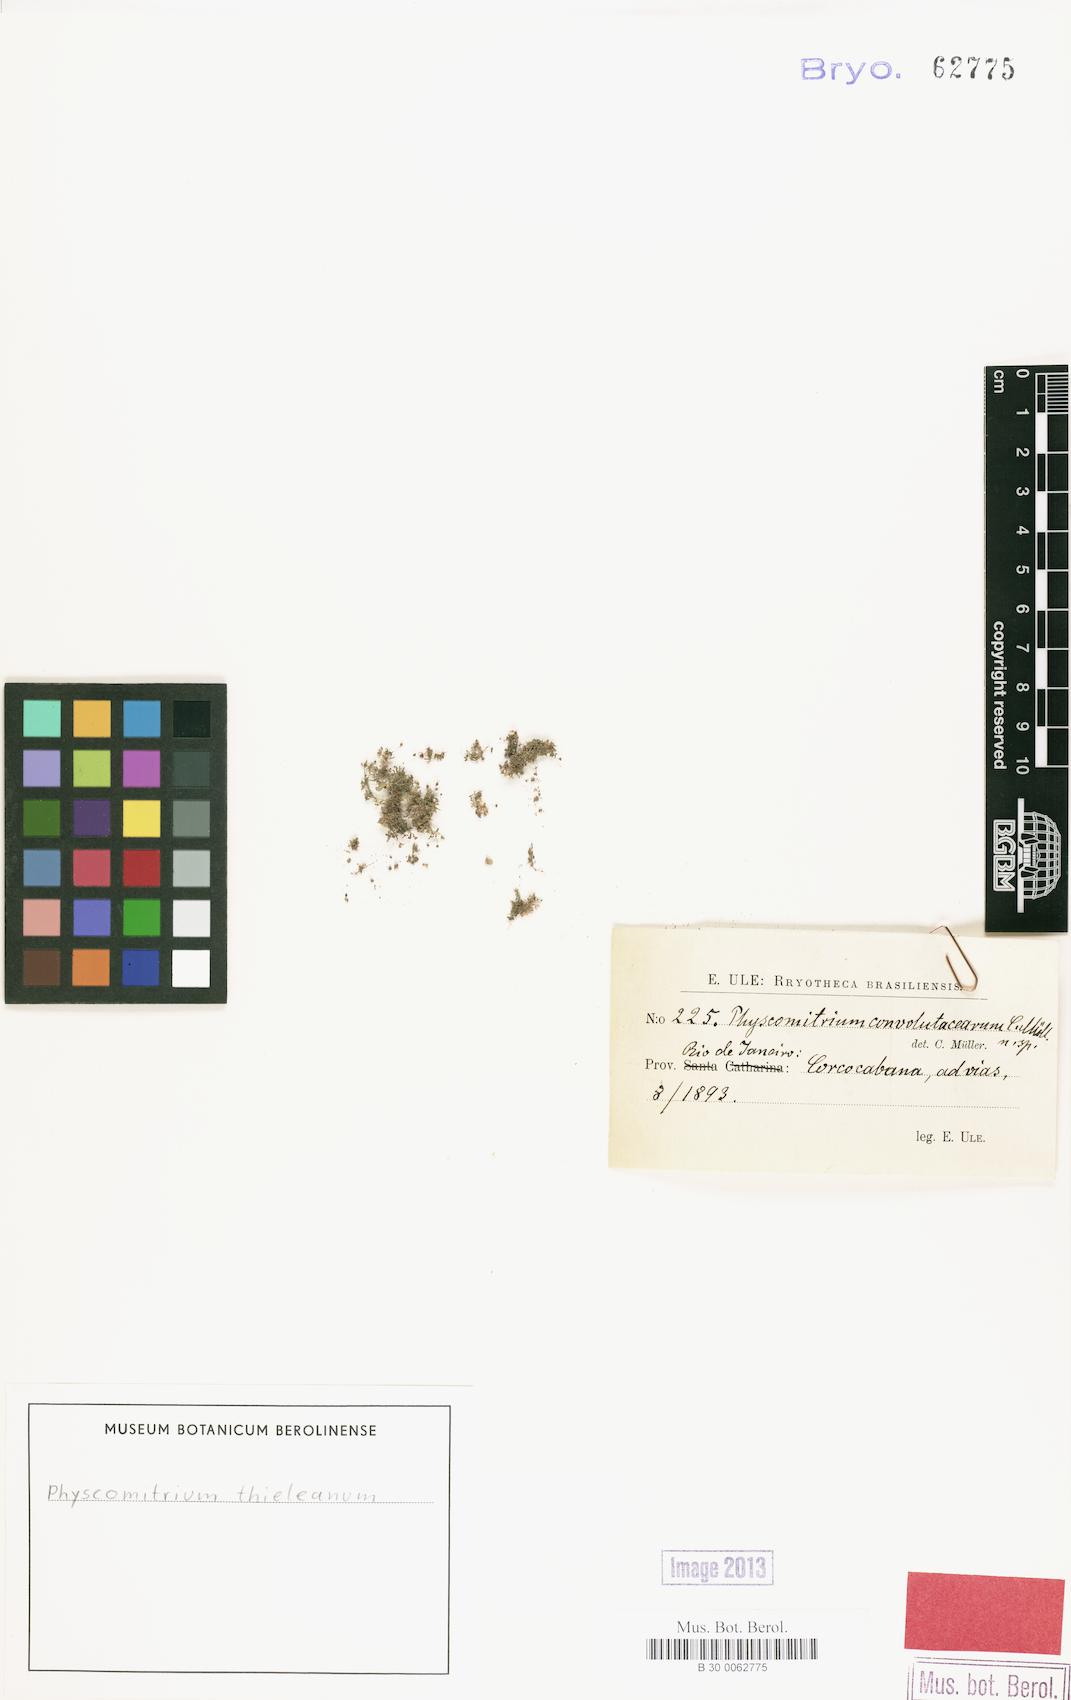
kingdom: Plantae
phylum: Bryophyta
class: Bryopsida
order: Funariales
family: Funariaceae
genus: Physcomitrium
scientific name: Physcomitrium thieleanum
